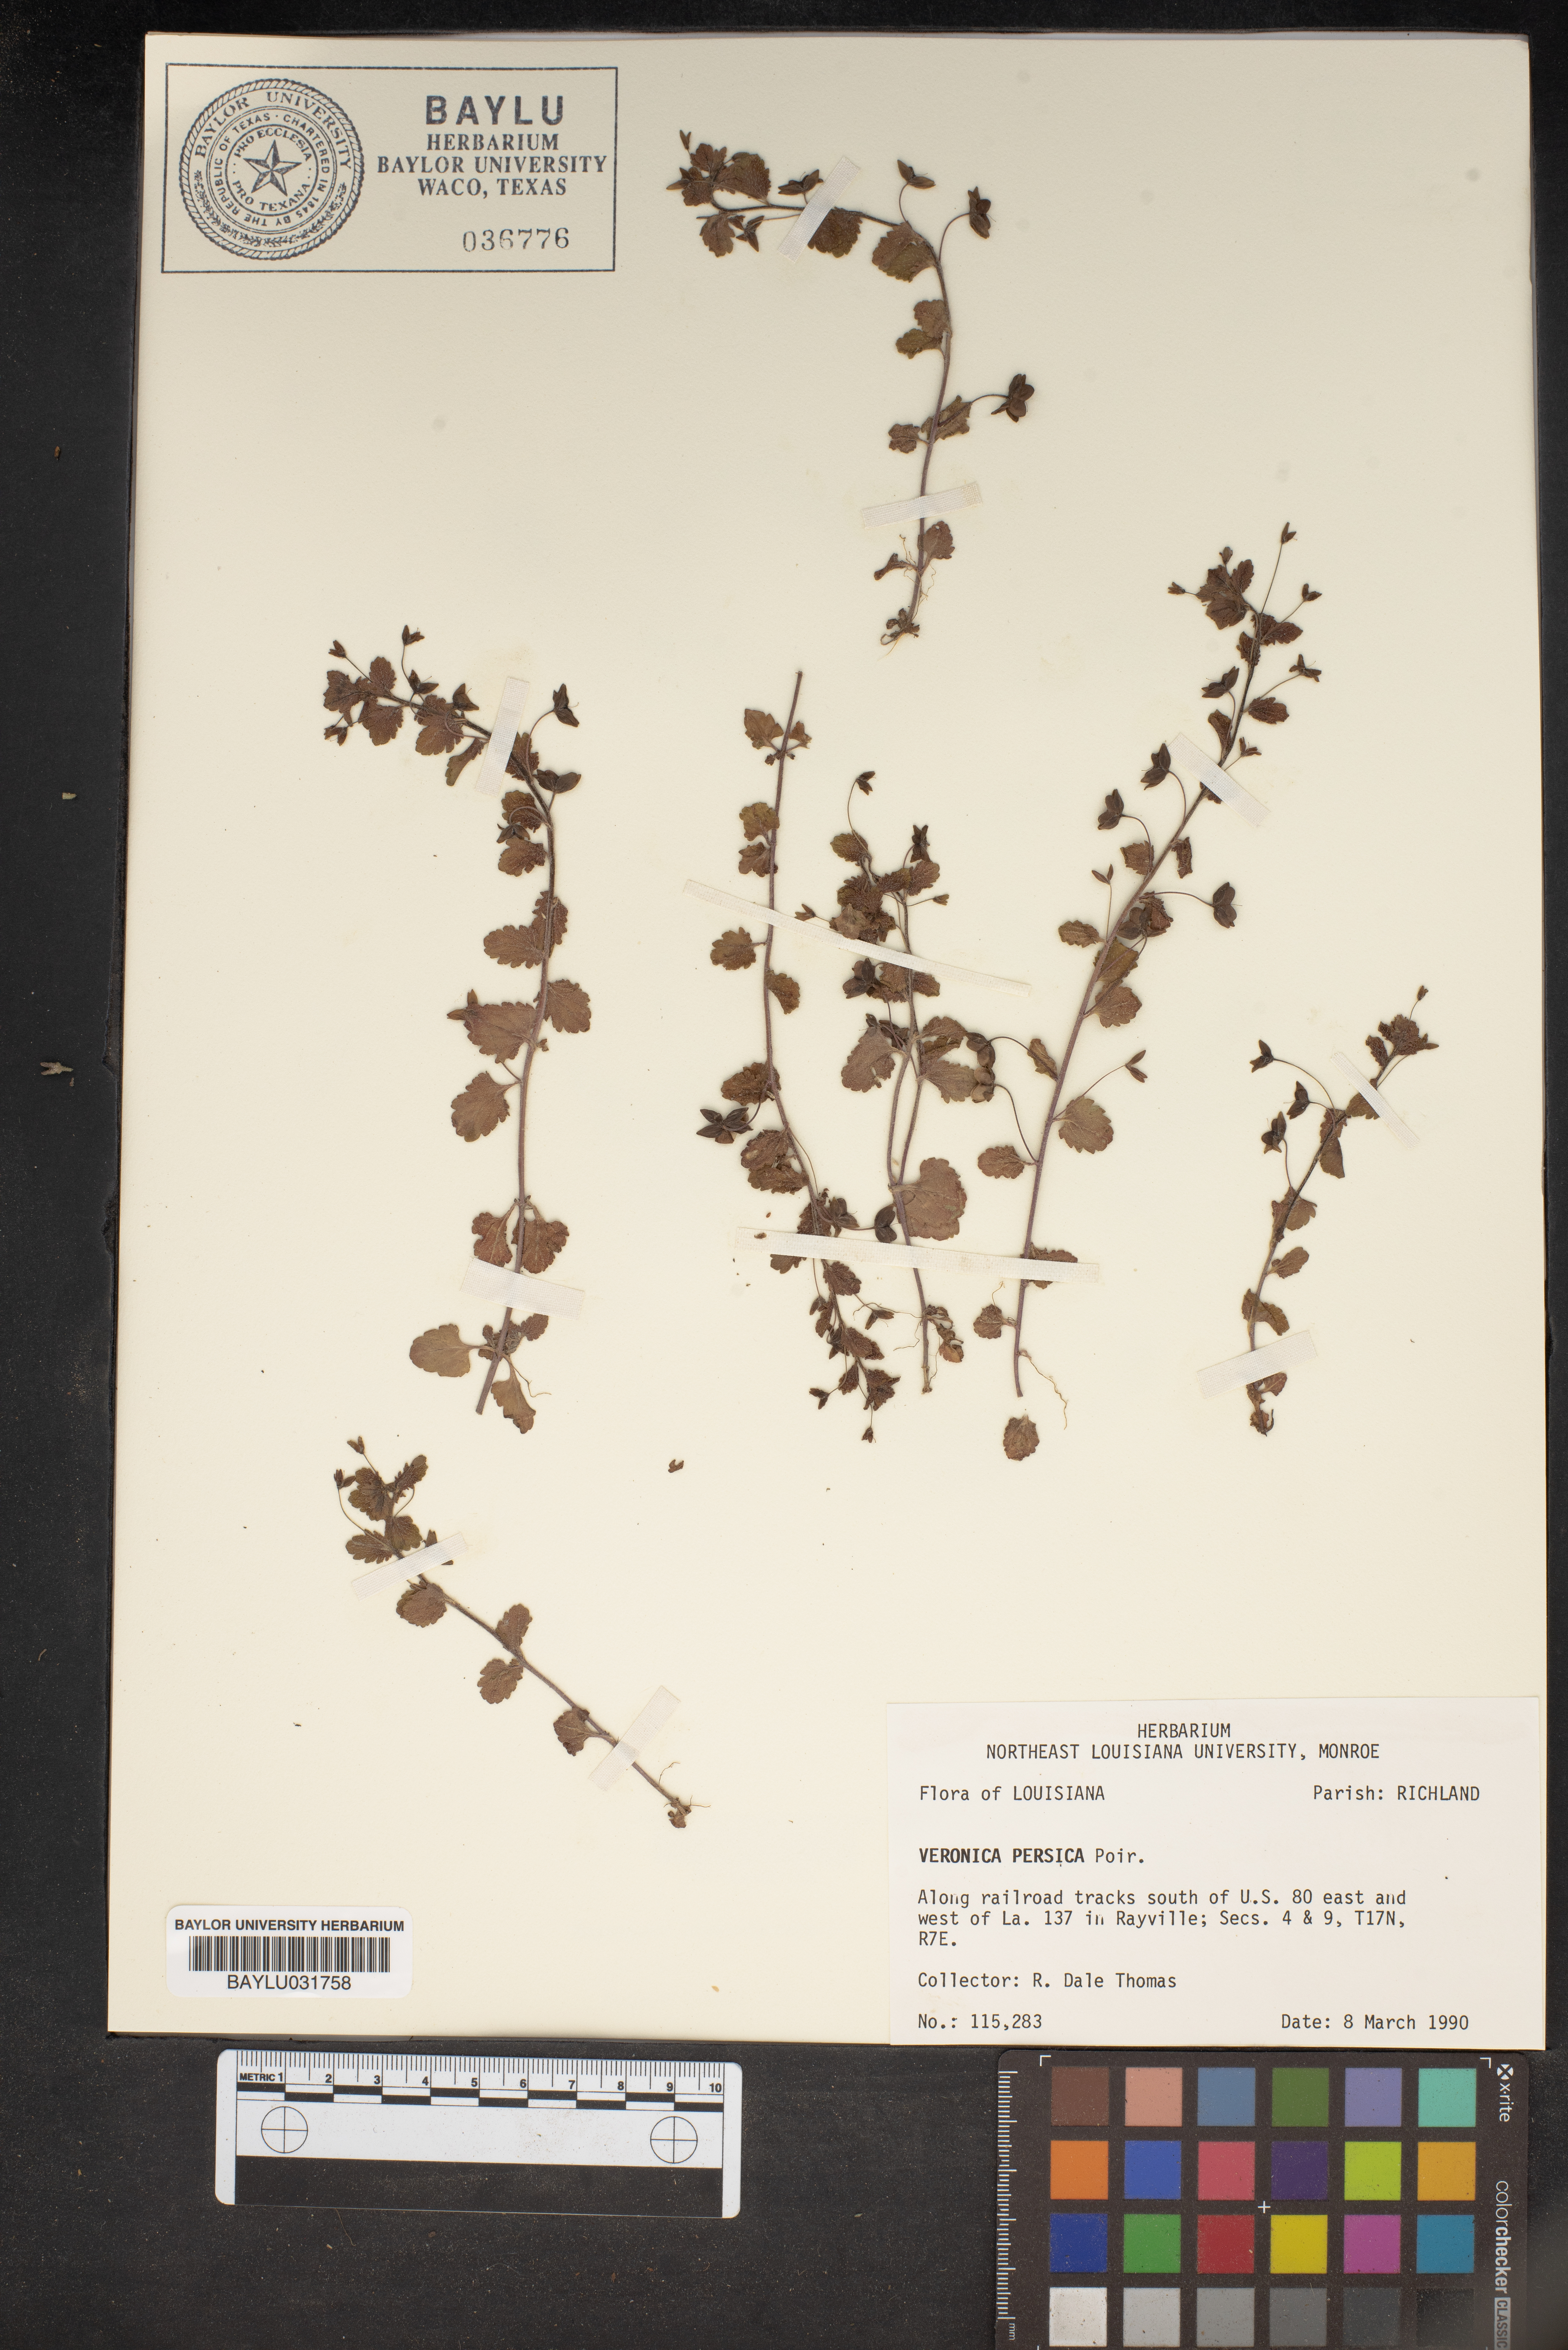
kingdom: Plantae
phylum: Tracheophyta
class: Magnoliopsida
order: Lamiales
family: Plantaginaceae
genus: Veronica
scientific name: Veronica persica
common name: Common field-speedwell
